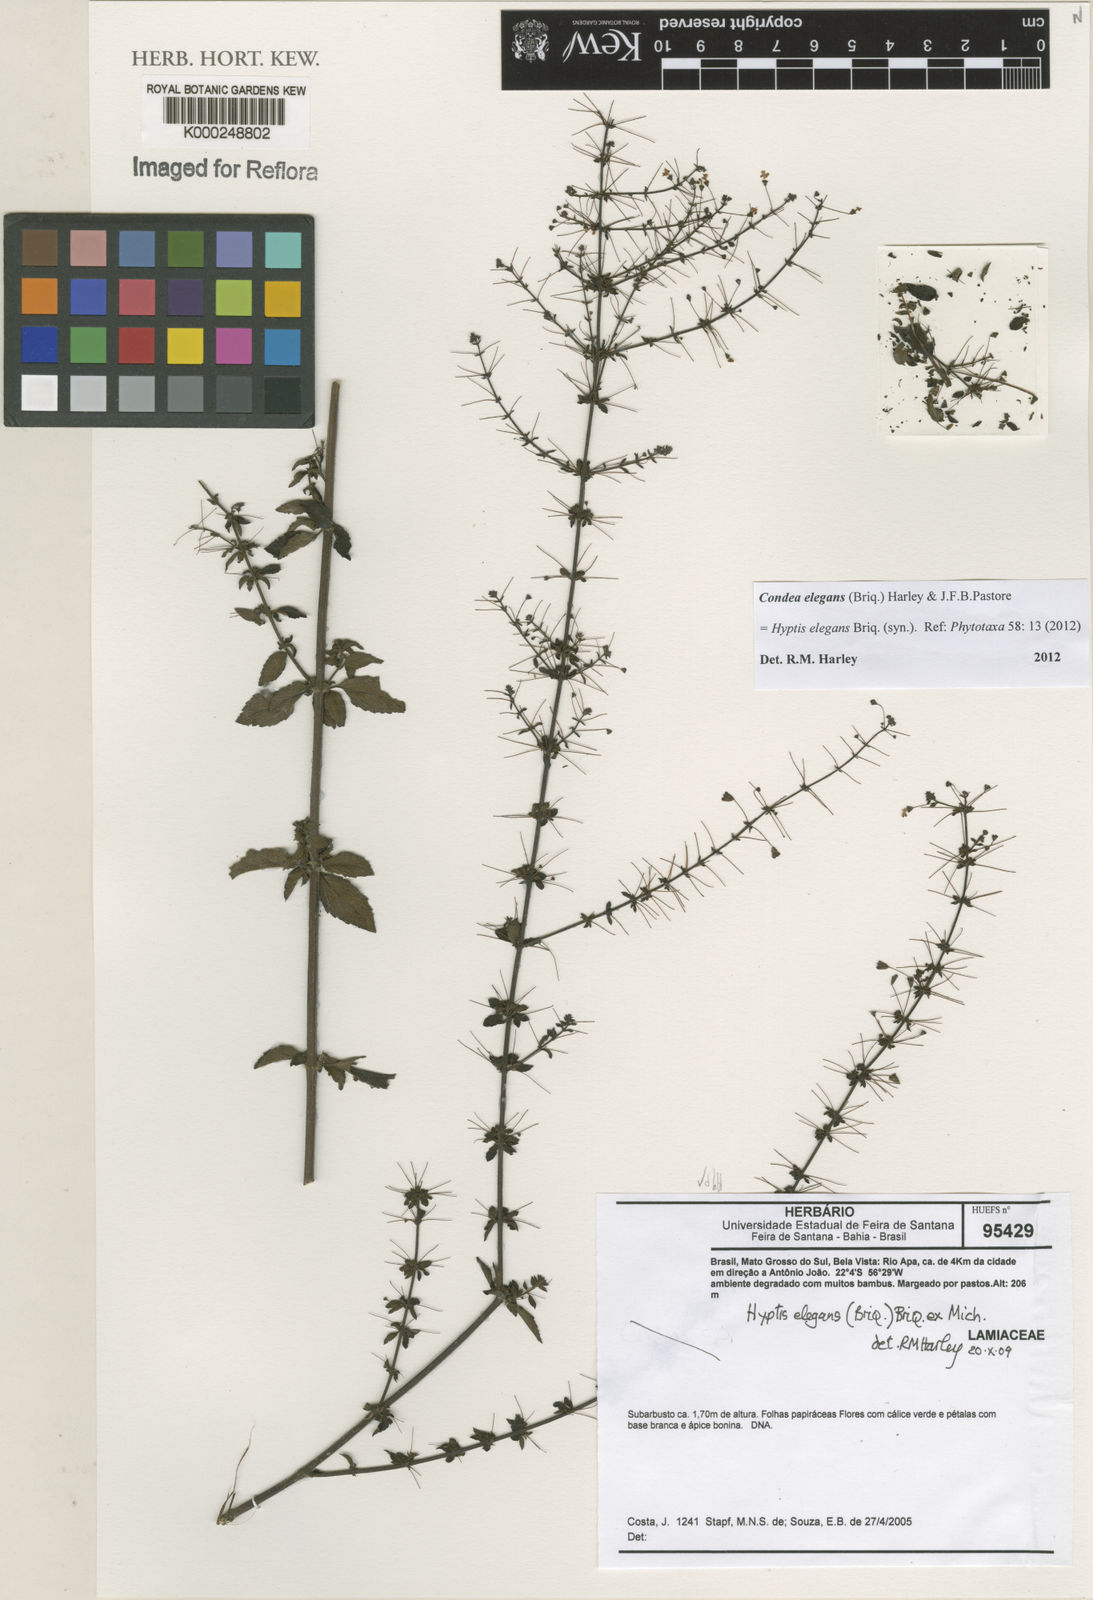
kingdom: Plantae
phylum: Tracheophyta
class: Magnoliopsida
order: Lamiales
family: Lamiaceae
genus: Hyptis
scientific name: Hyptis
